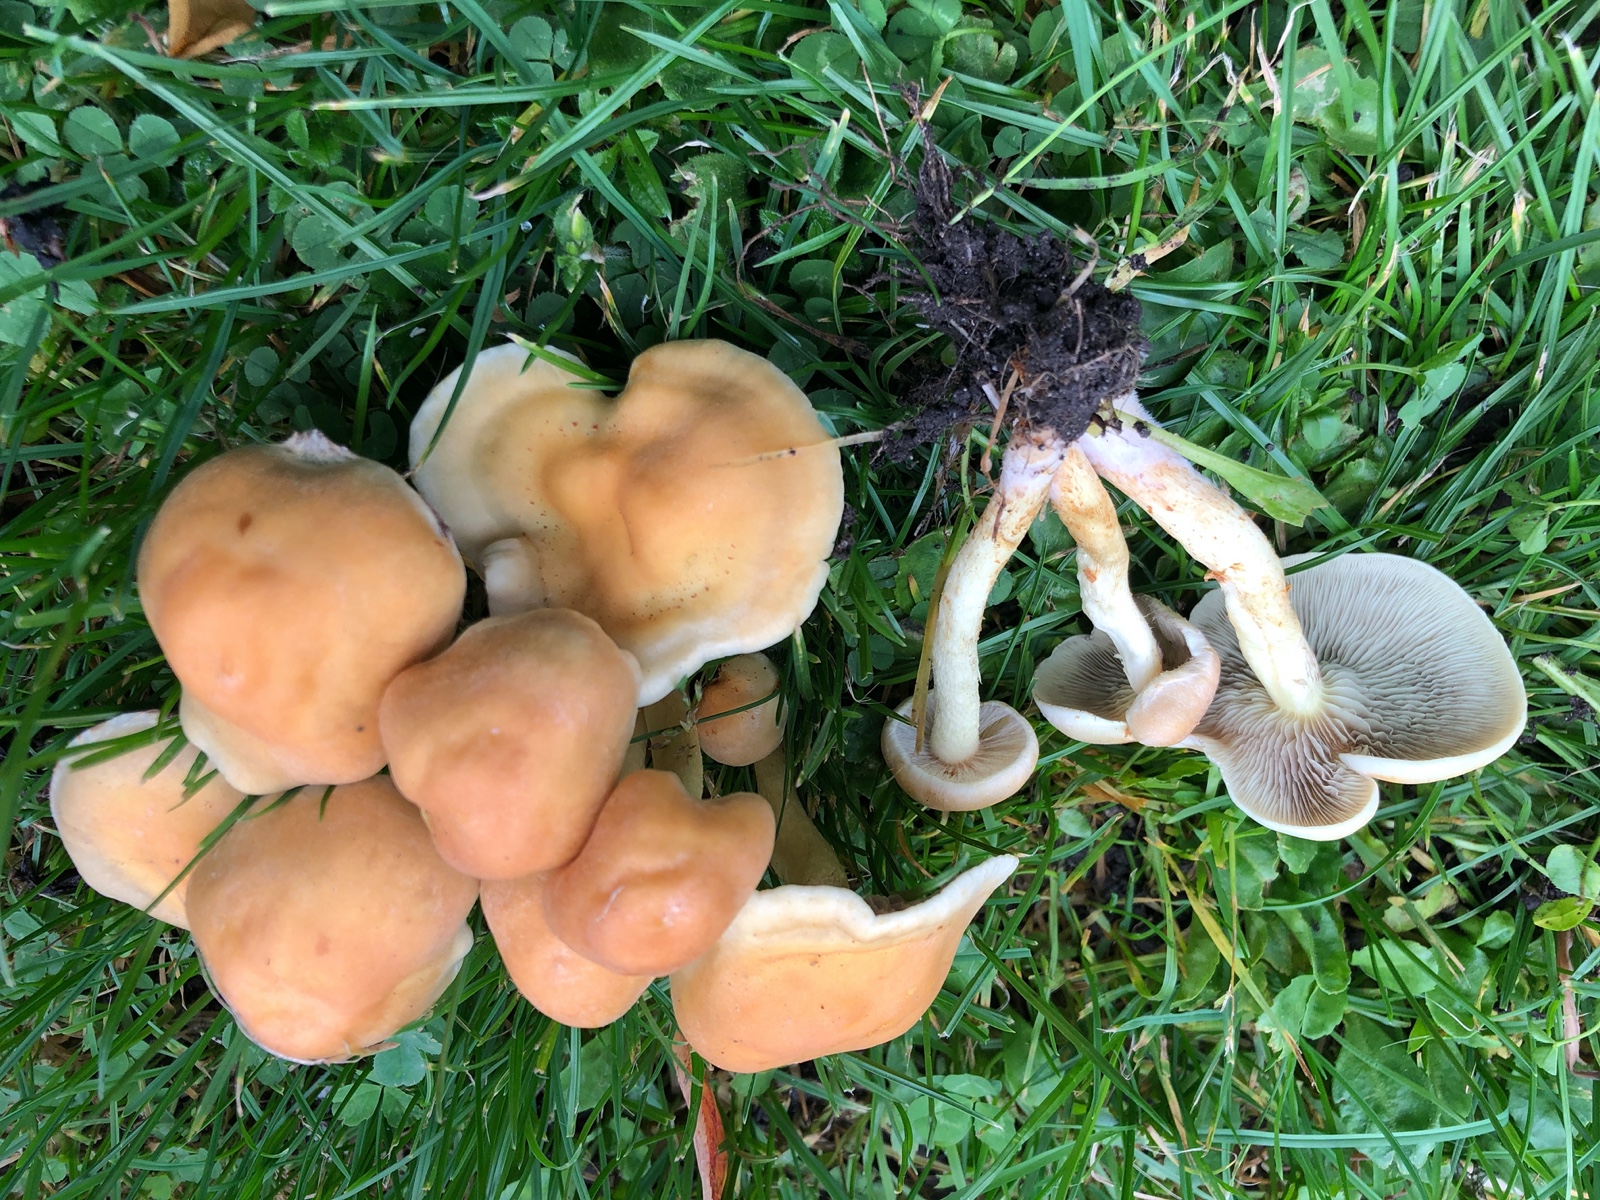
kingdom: Fungi
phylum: Basidiomycota
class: Agaricomycetes
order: Agaricales
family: Strophariaceae
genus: Hypholoma
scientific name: Hypholoma fasciculare
